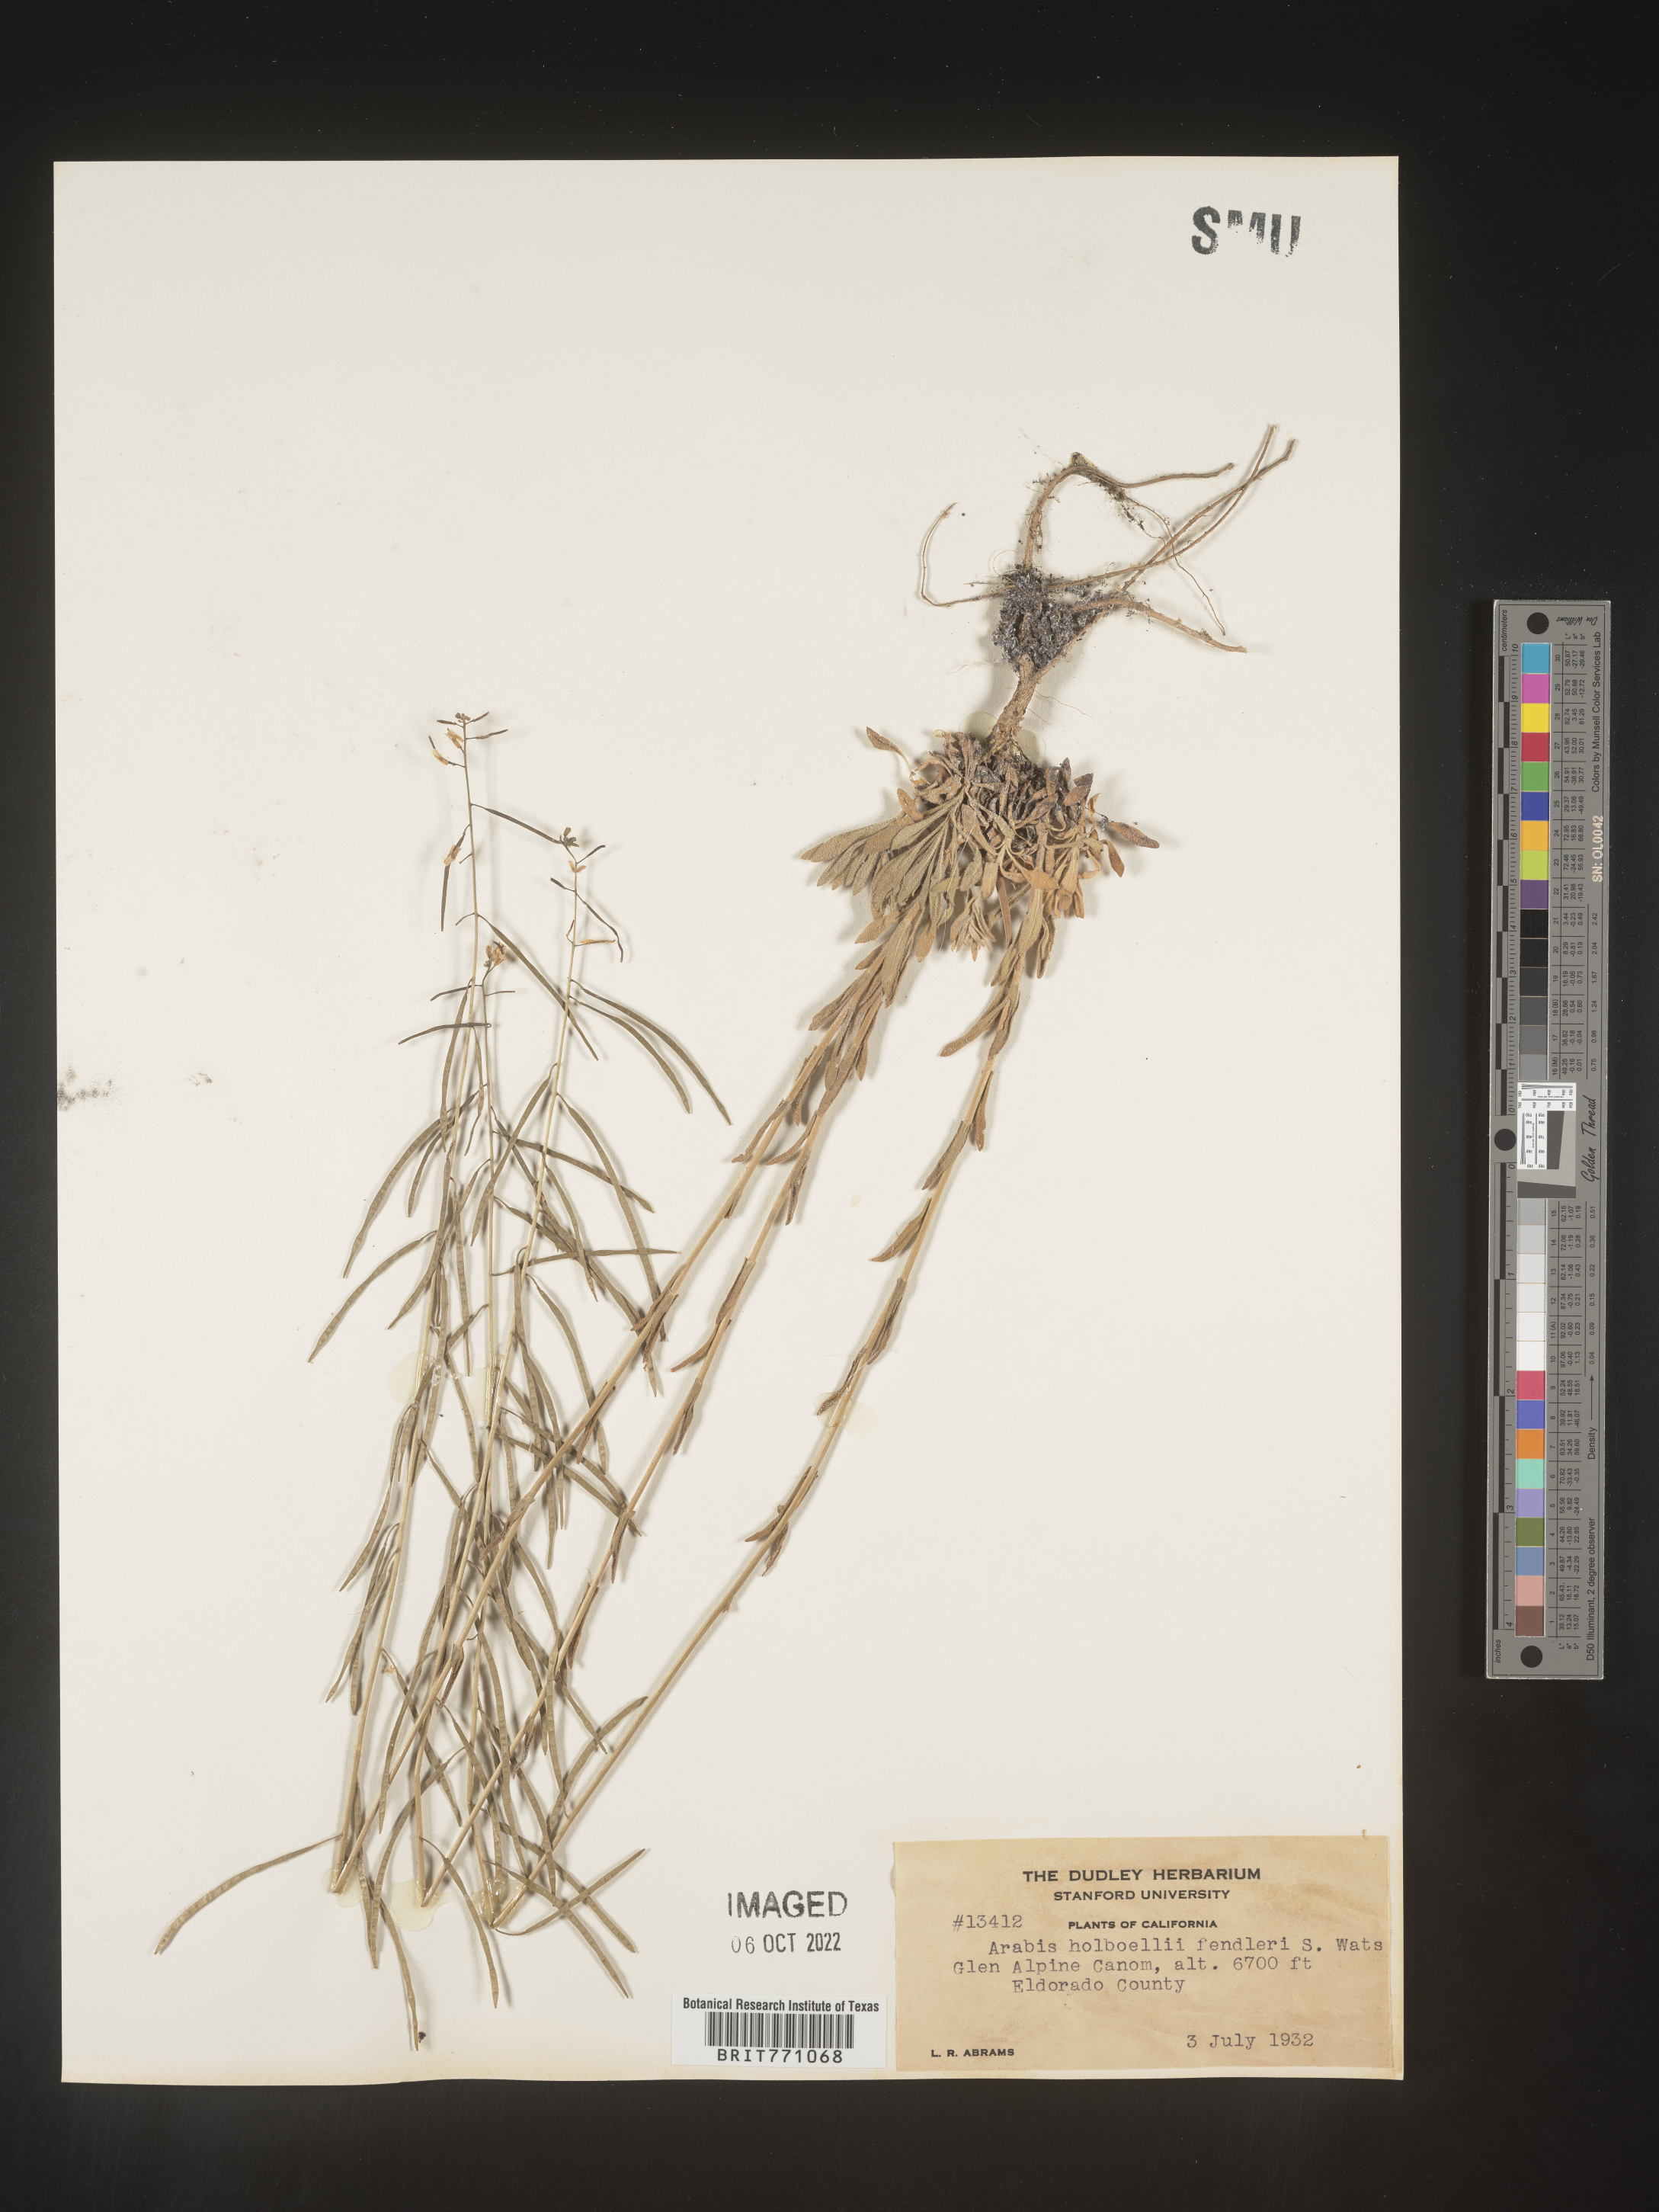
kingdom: Plantae
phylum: Tracheophyta
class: Magnoliopsida
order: Brassicales
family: Brassicaceae
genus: Boechera
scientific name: Boechera holboellii
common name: Holboell's rockcress
